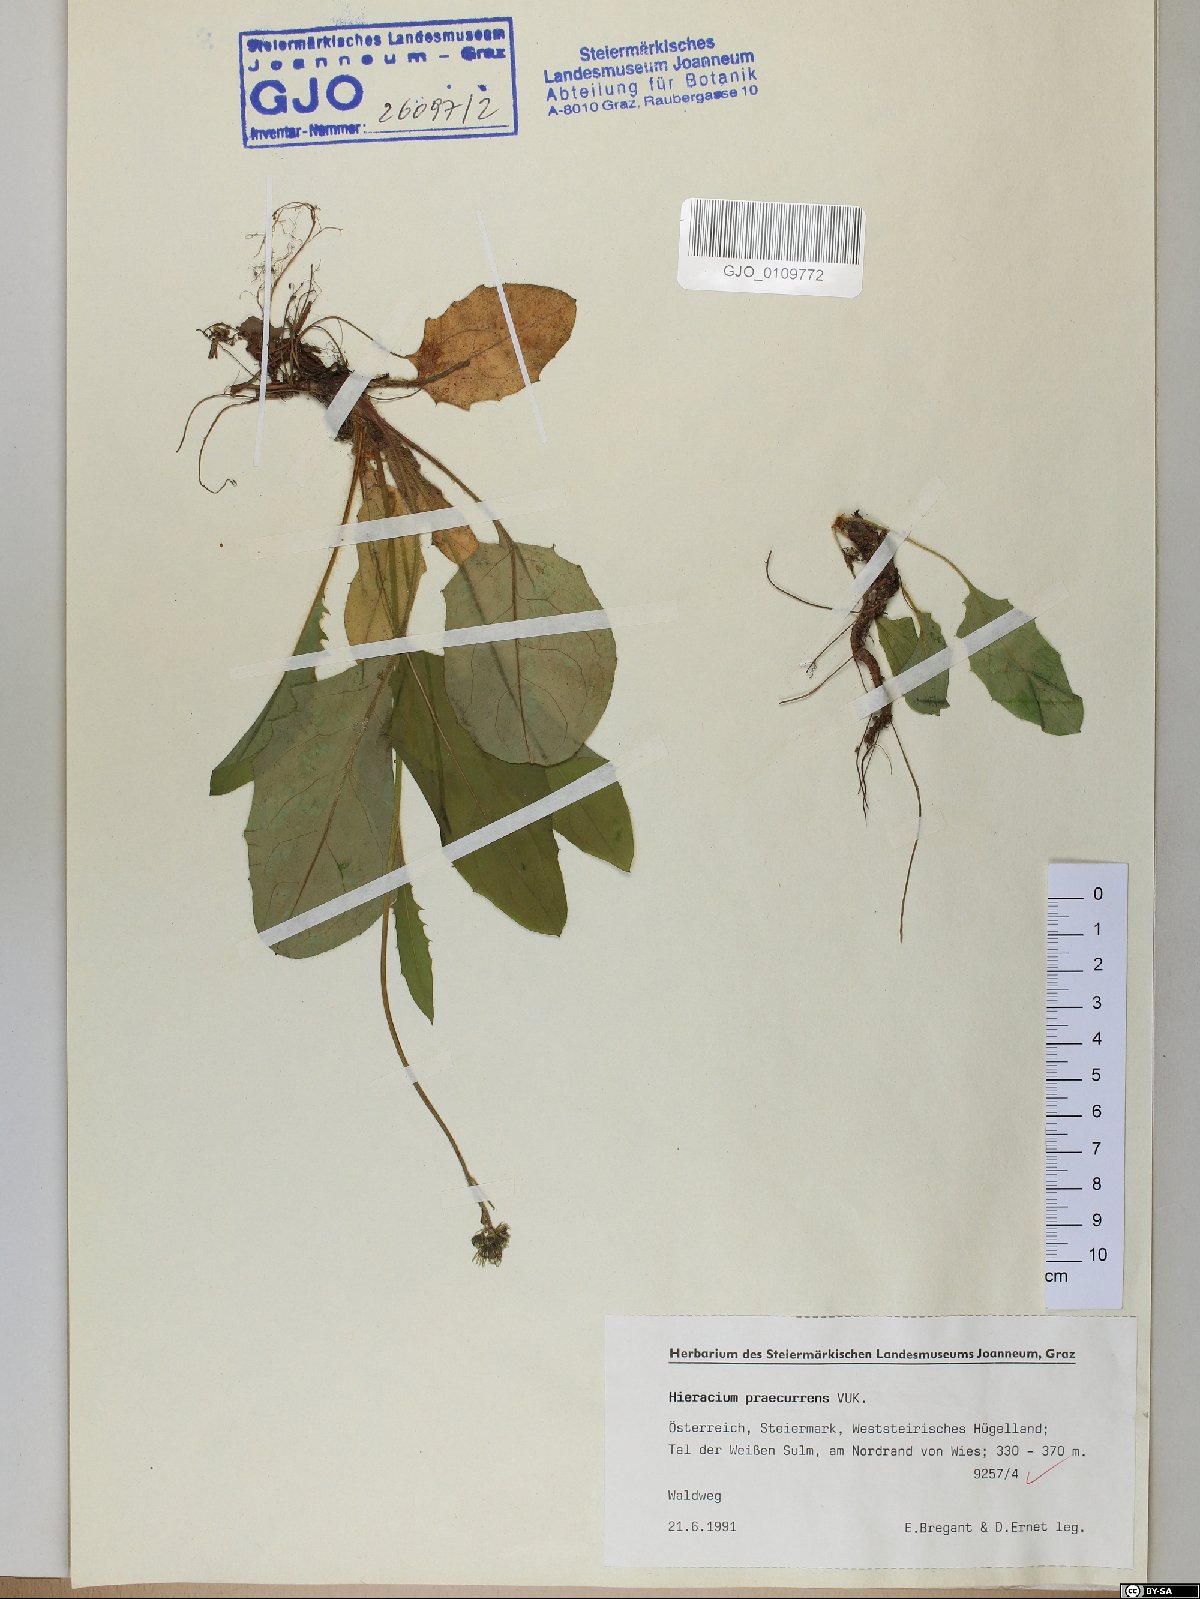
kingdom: Plantae
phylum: Tracheophyta
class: Magnoliopsida
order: Asterales
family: Asteraceae
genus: Hieracium
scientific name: Hieracium rotundatum
